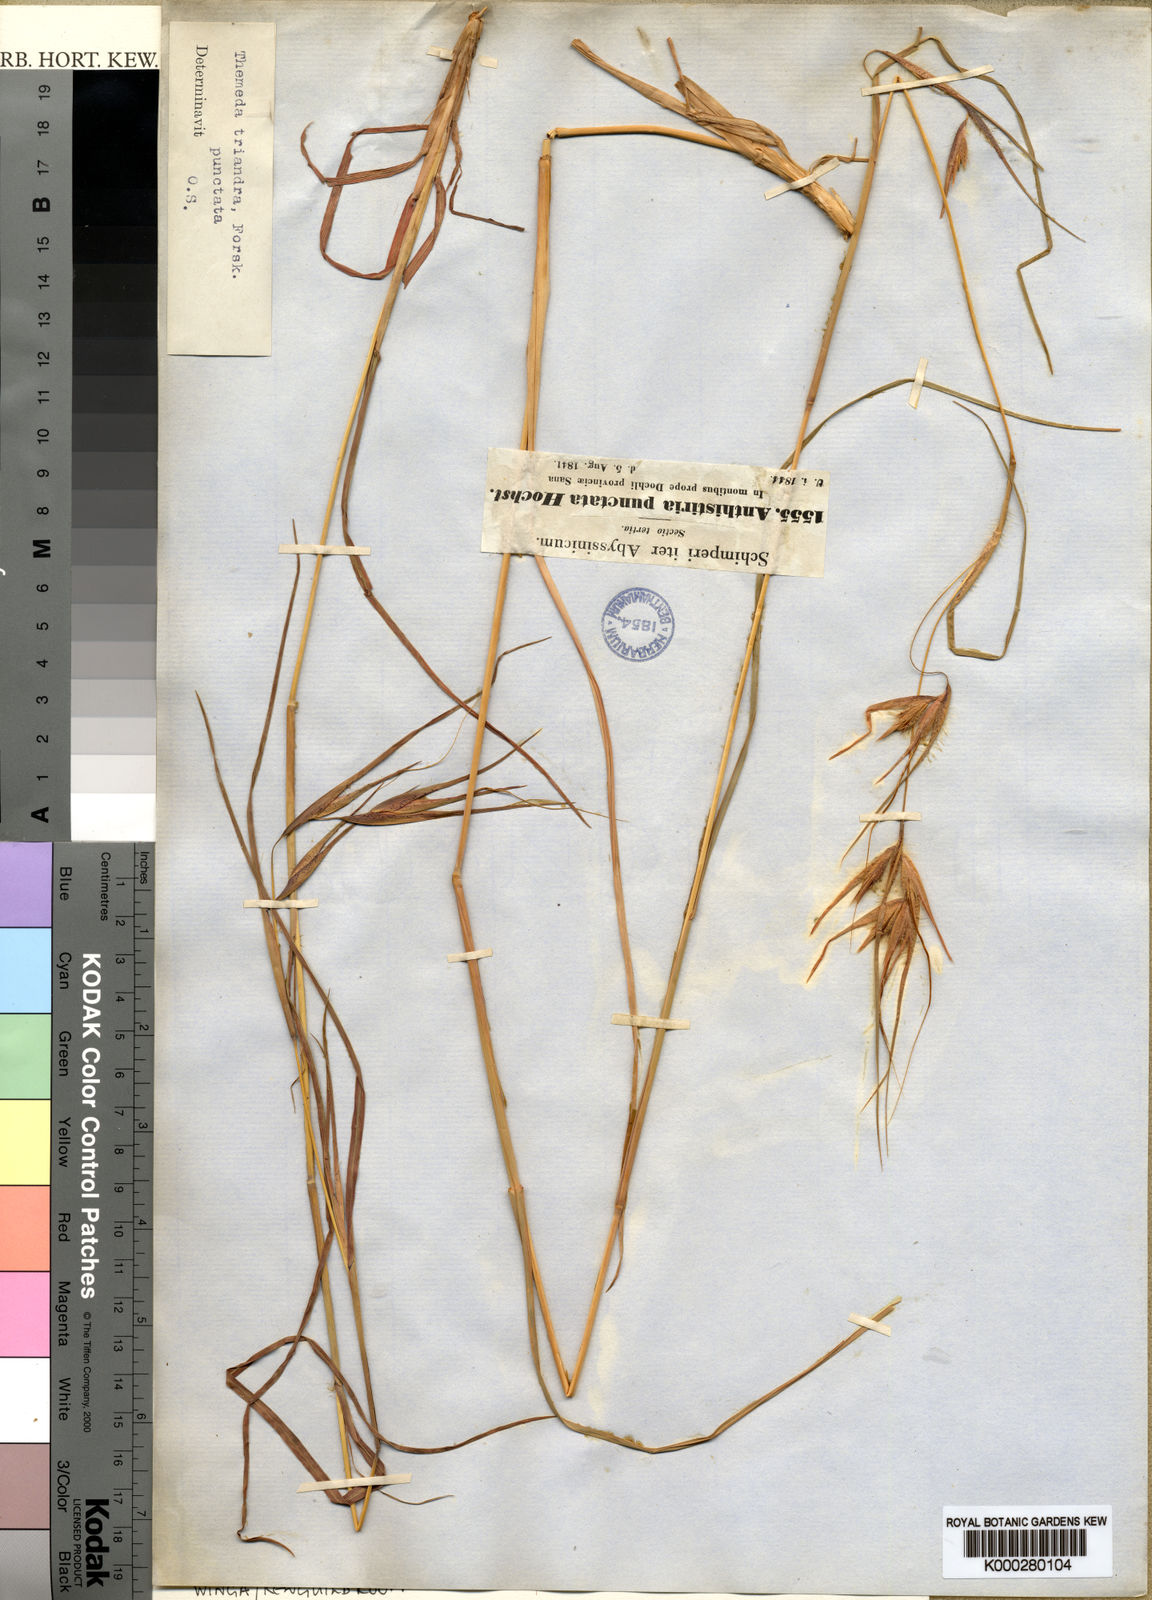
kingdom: Plantae
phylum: Tracheophyta
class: Liliopsida
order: Poales
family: Poaceae
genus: Themeda
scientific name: Themeda triandra
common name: Kangaroo grass
